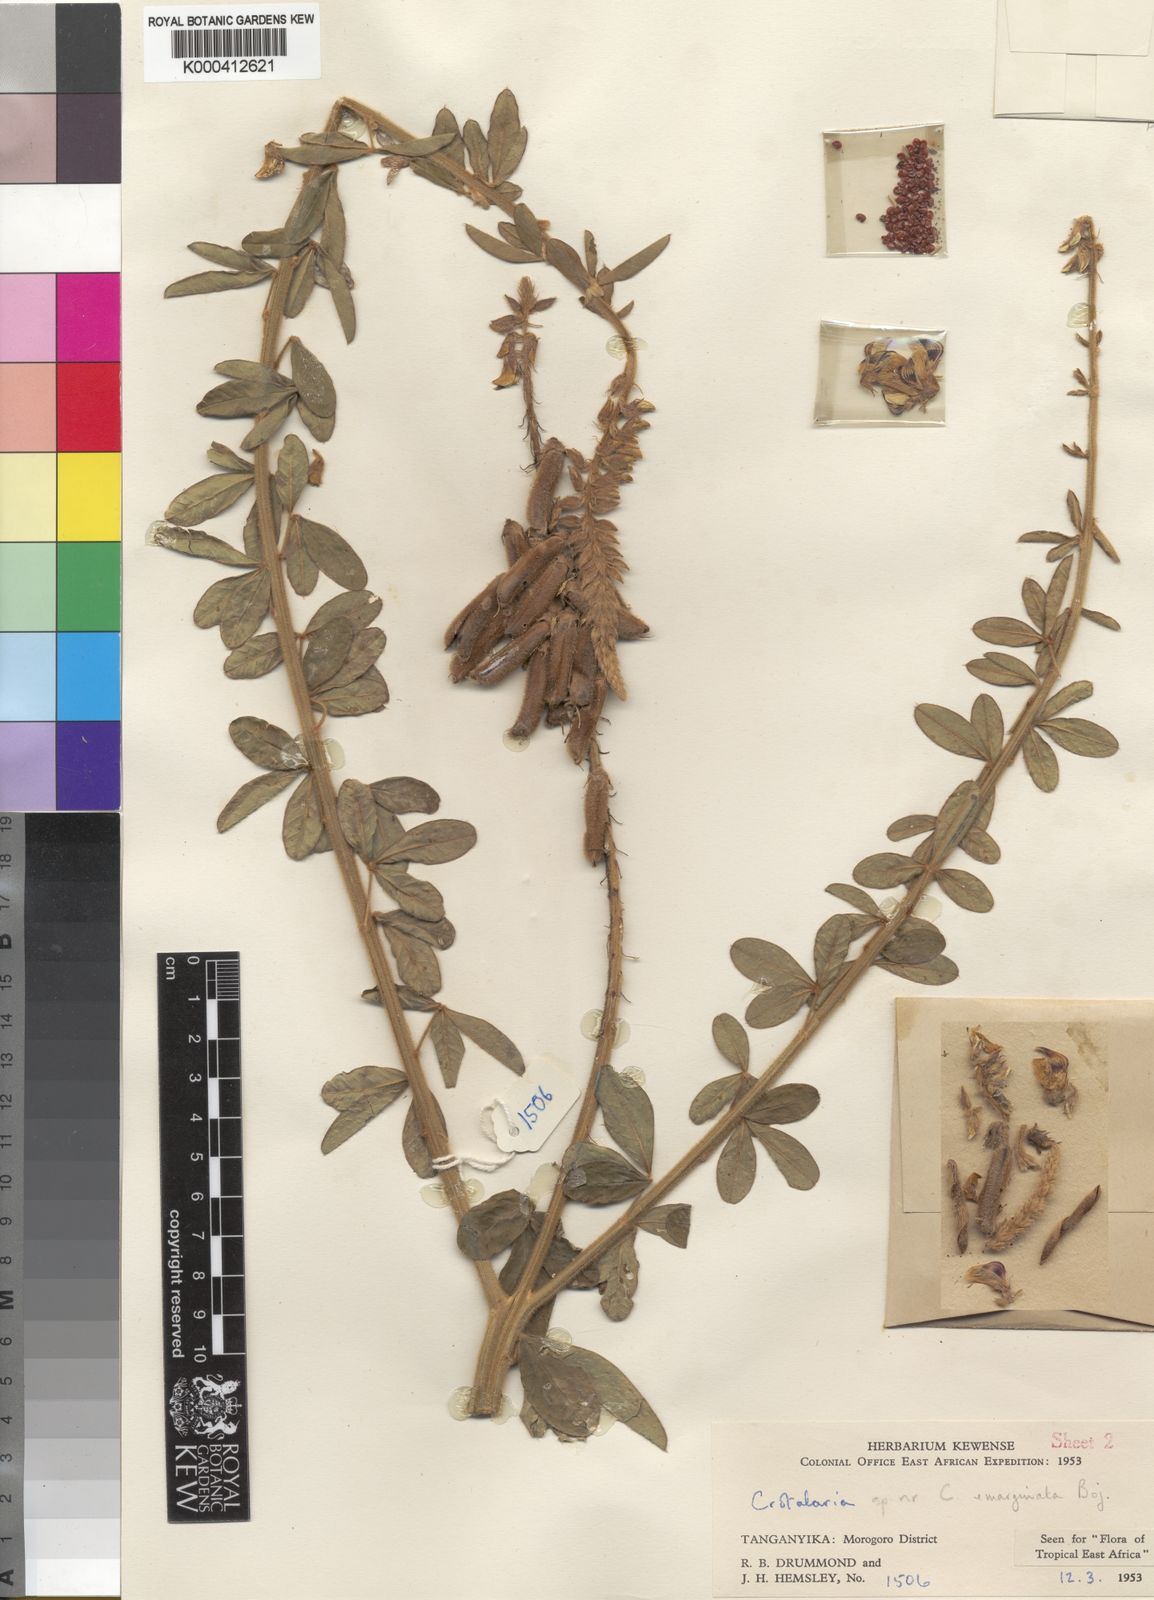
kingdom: Plantae
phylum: Tracheophyta
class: Magnoliopsida
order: Fabales
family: Fabaceae
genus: Crotalaria
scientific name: Crotalaria hemsleyi
